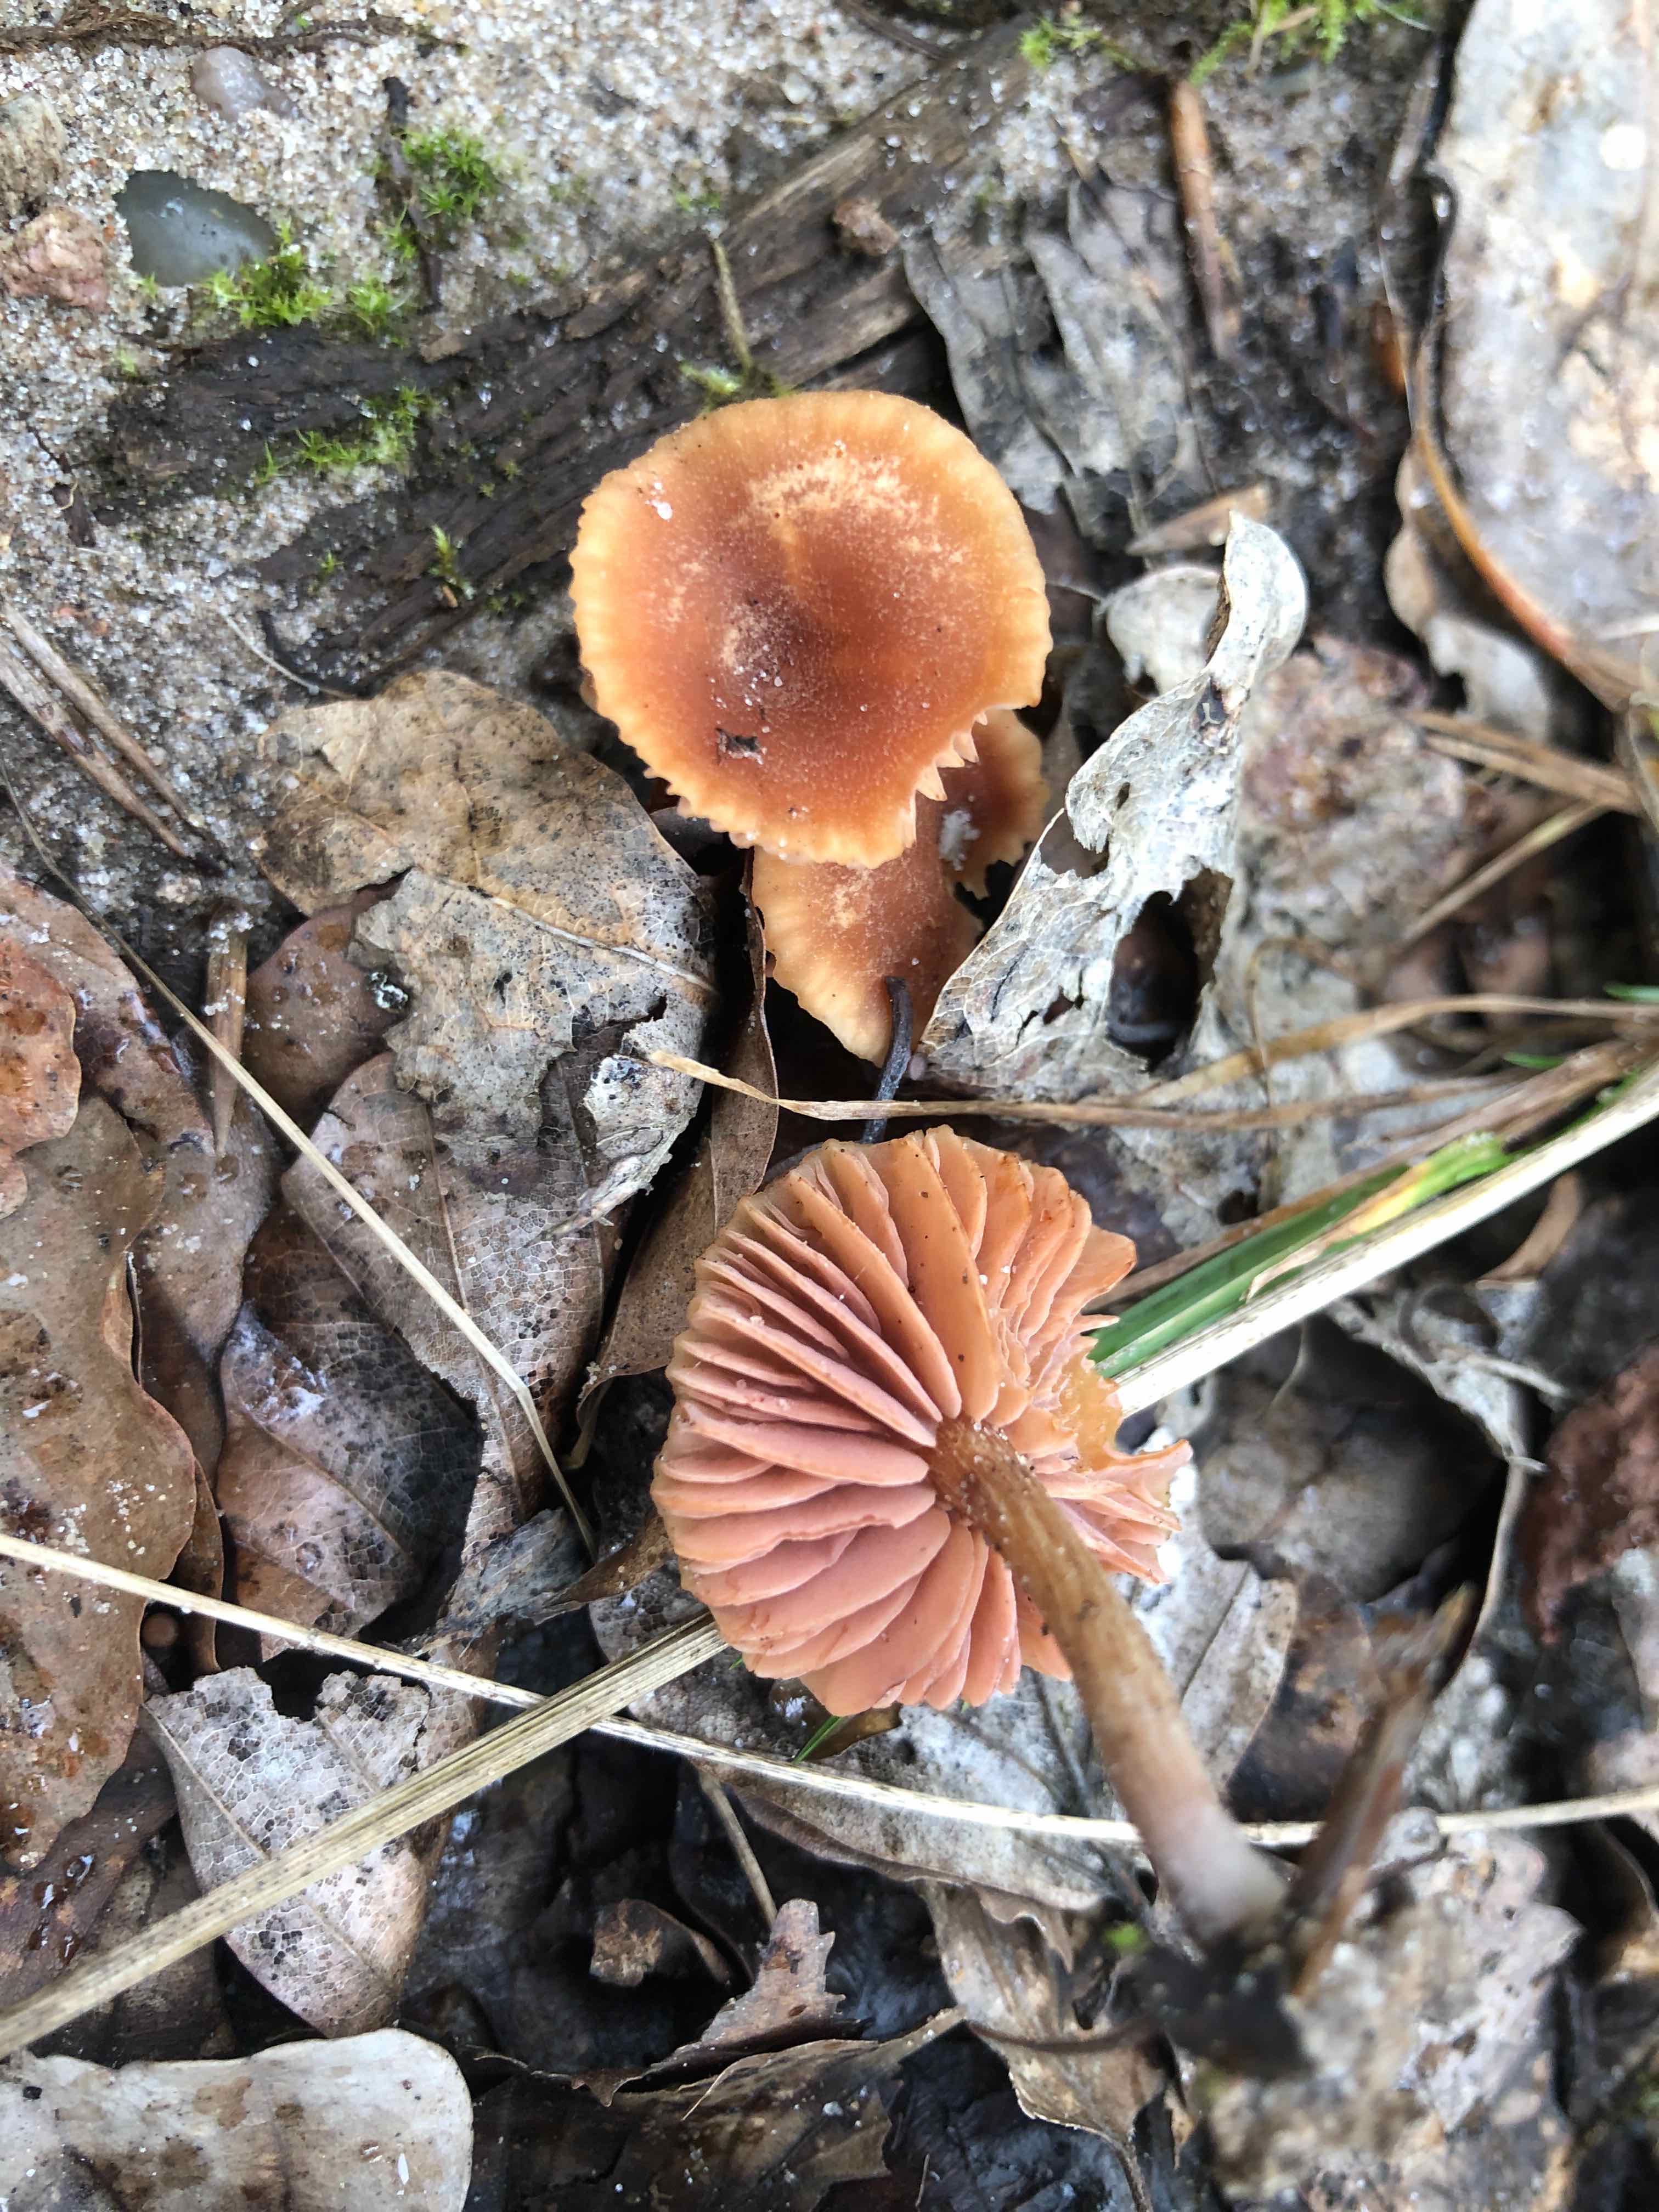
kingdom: Fungi
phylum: Basidiomycota
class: Agaricomycetes
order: Agaricales
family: Hydnangiaceae
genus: Laccaria
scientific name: Laccaria laccata
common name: rød ametysthat
